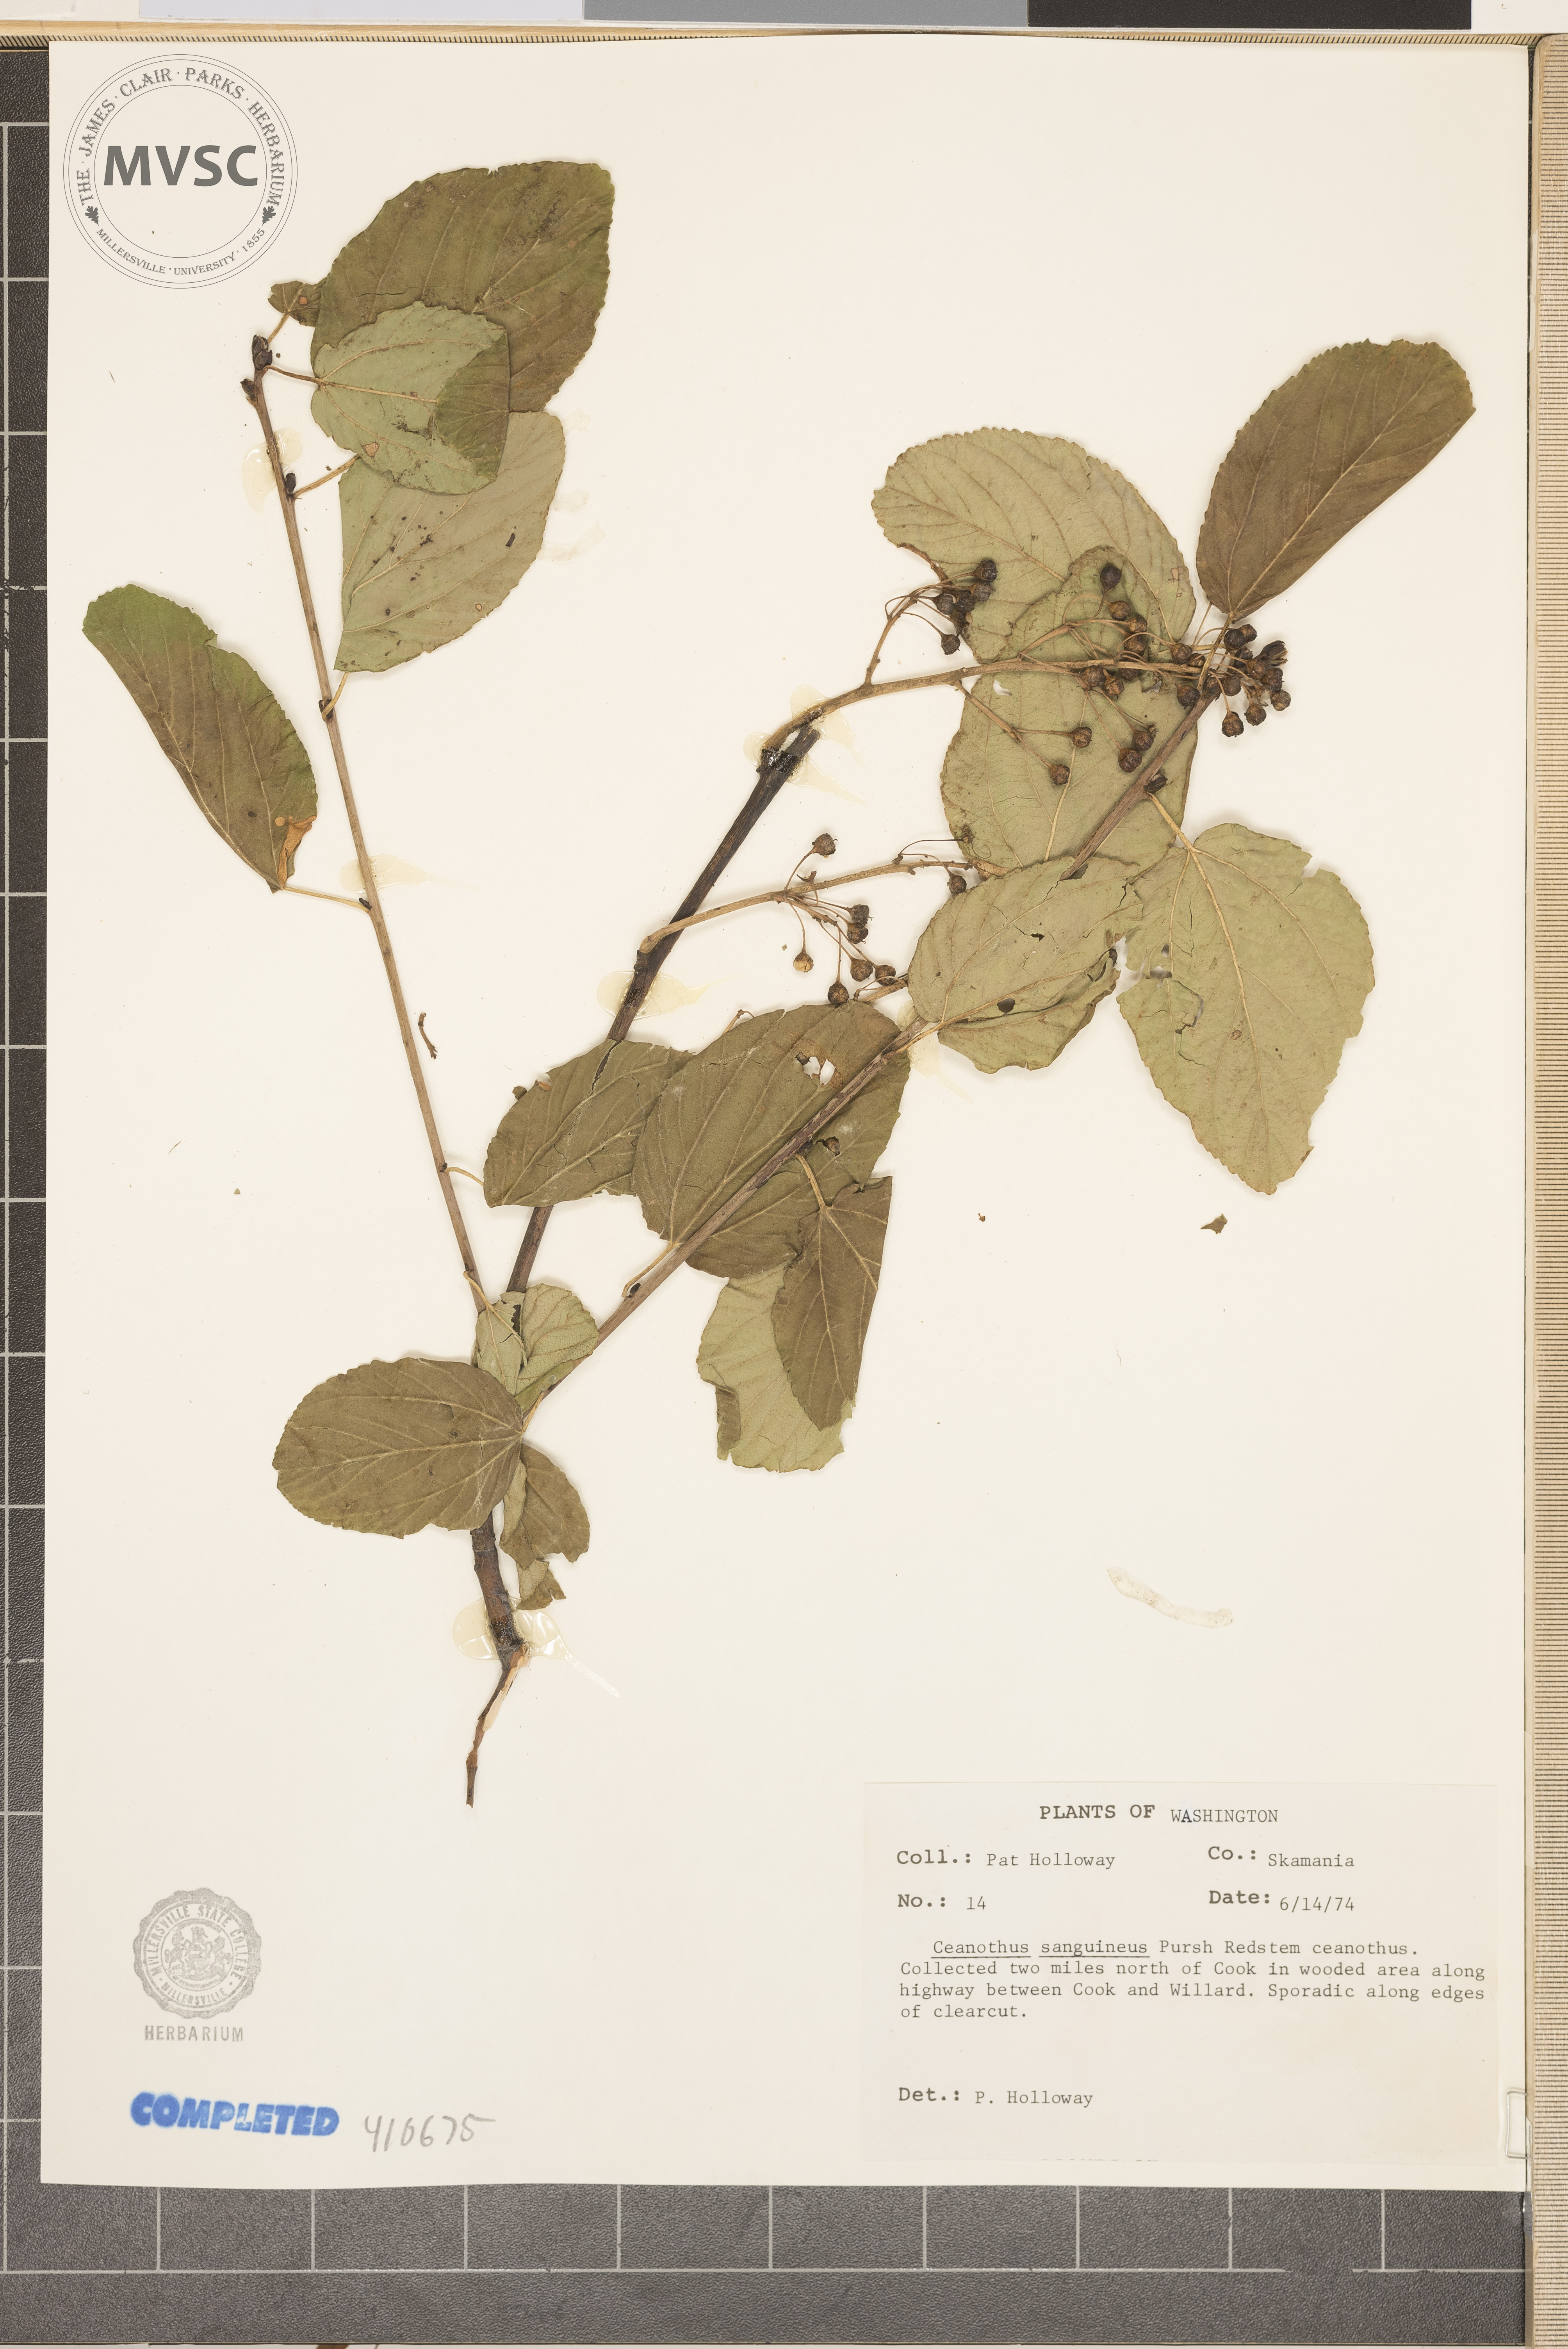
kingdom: Plantae
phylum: Tracheophyta
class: Magnoliopsida
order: Rosales
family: Rhamnaceae
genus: Ceanothus
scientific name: Ceanothus sanguineus
